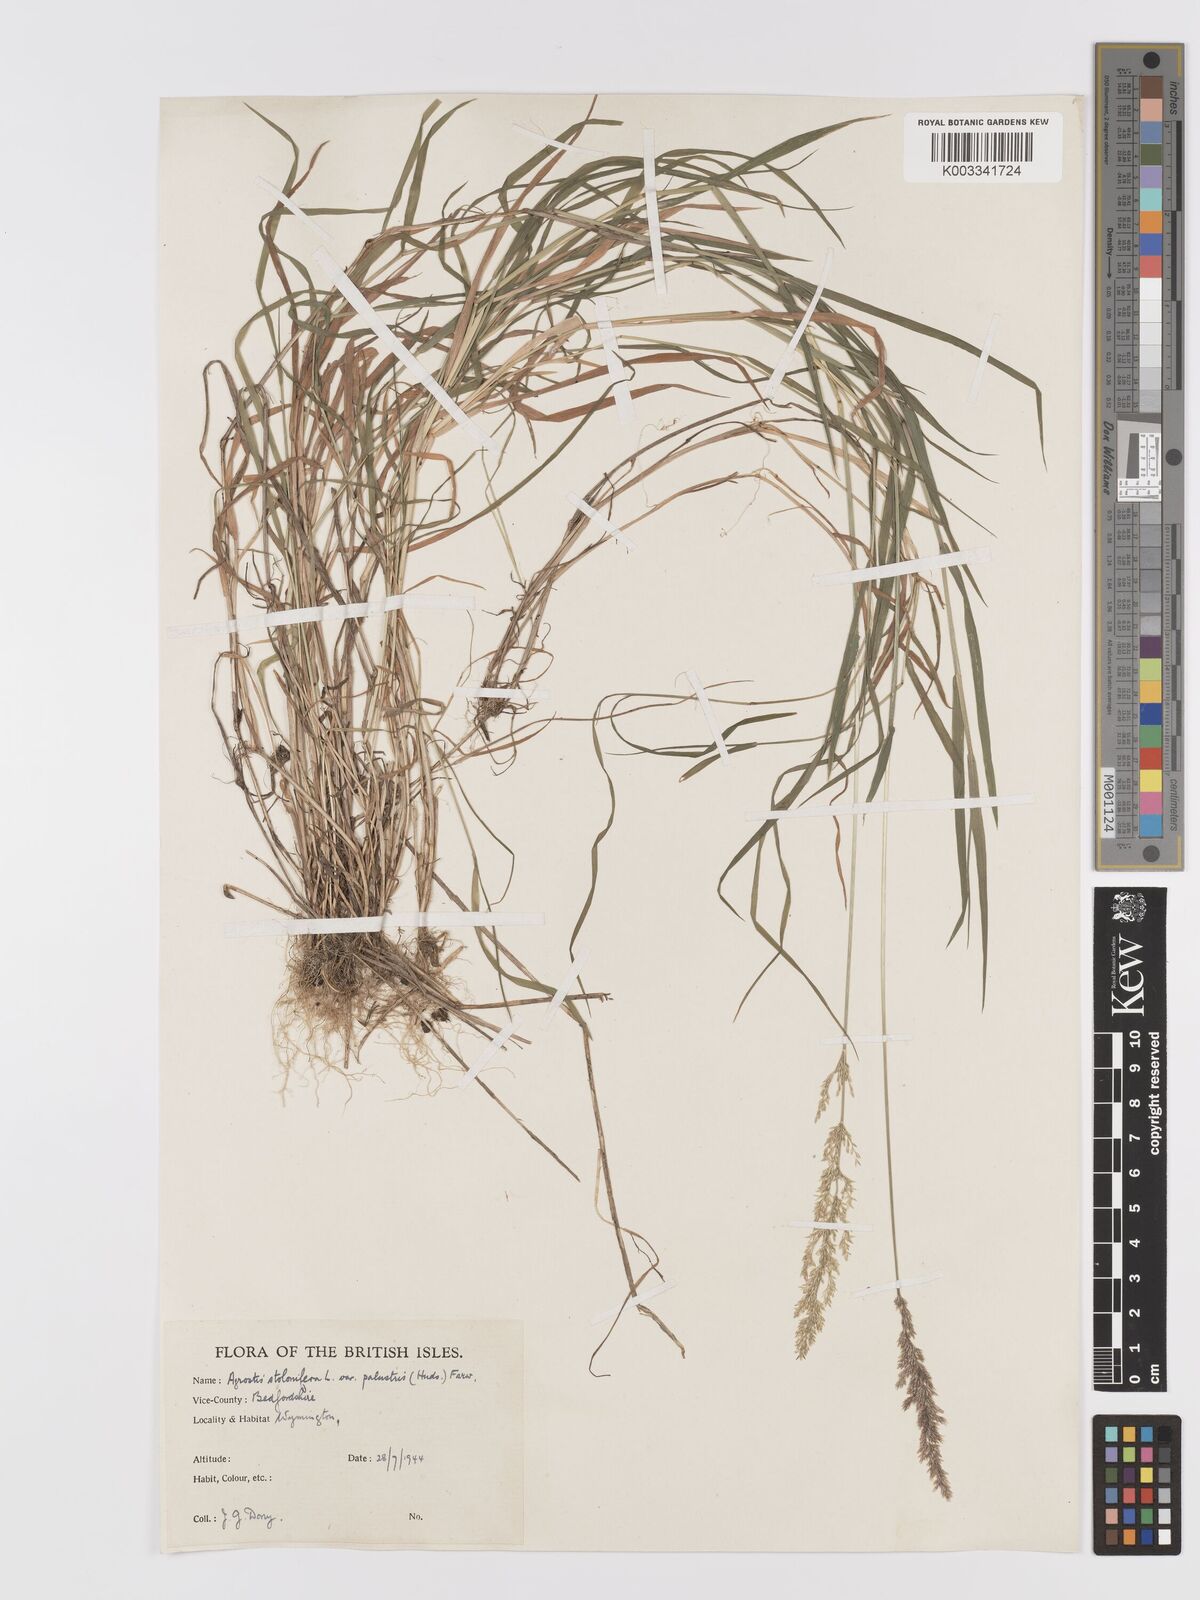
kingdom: Plantae
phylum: Tracheophyta
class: Liliopsida
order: Poales
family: Poaceae
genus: Agrostis
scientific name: Agrostis stolonifera
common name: Creeping bentgrass
